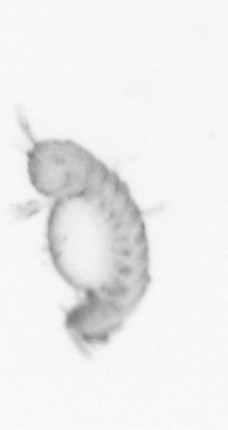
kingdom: Animalia
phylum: Annelida
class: Polychaeta
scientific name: Polychaeta
